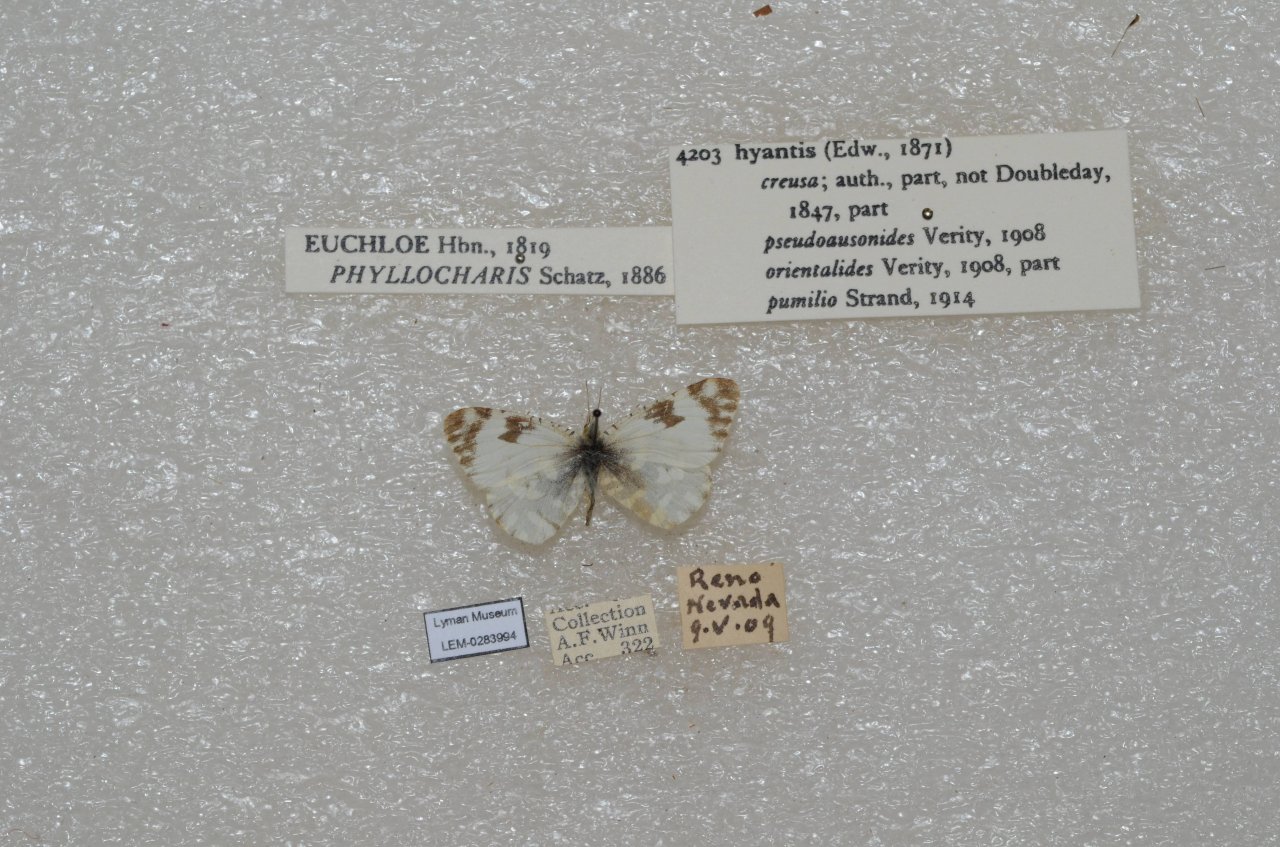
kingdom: Animalia
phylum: Arthropoda
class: Insecta
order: Lepidoptera
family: Pieridae
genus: Euchloe
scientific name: Euchloe hyantis
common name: California Marble
